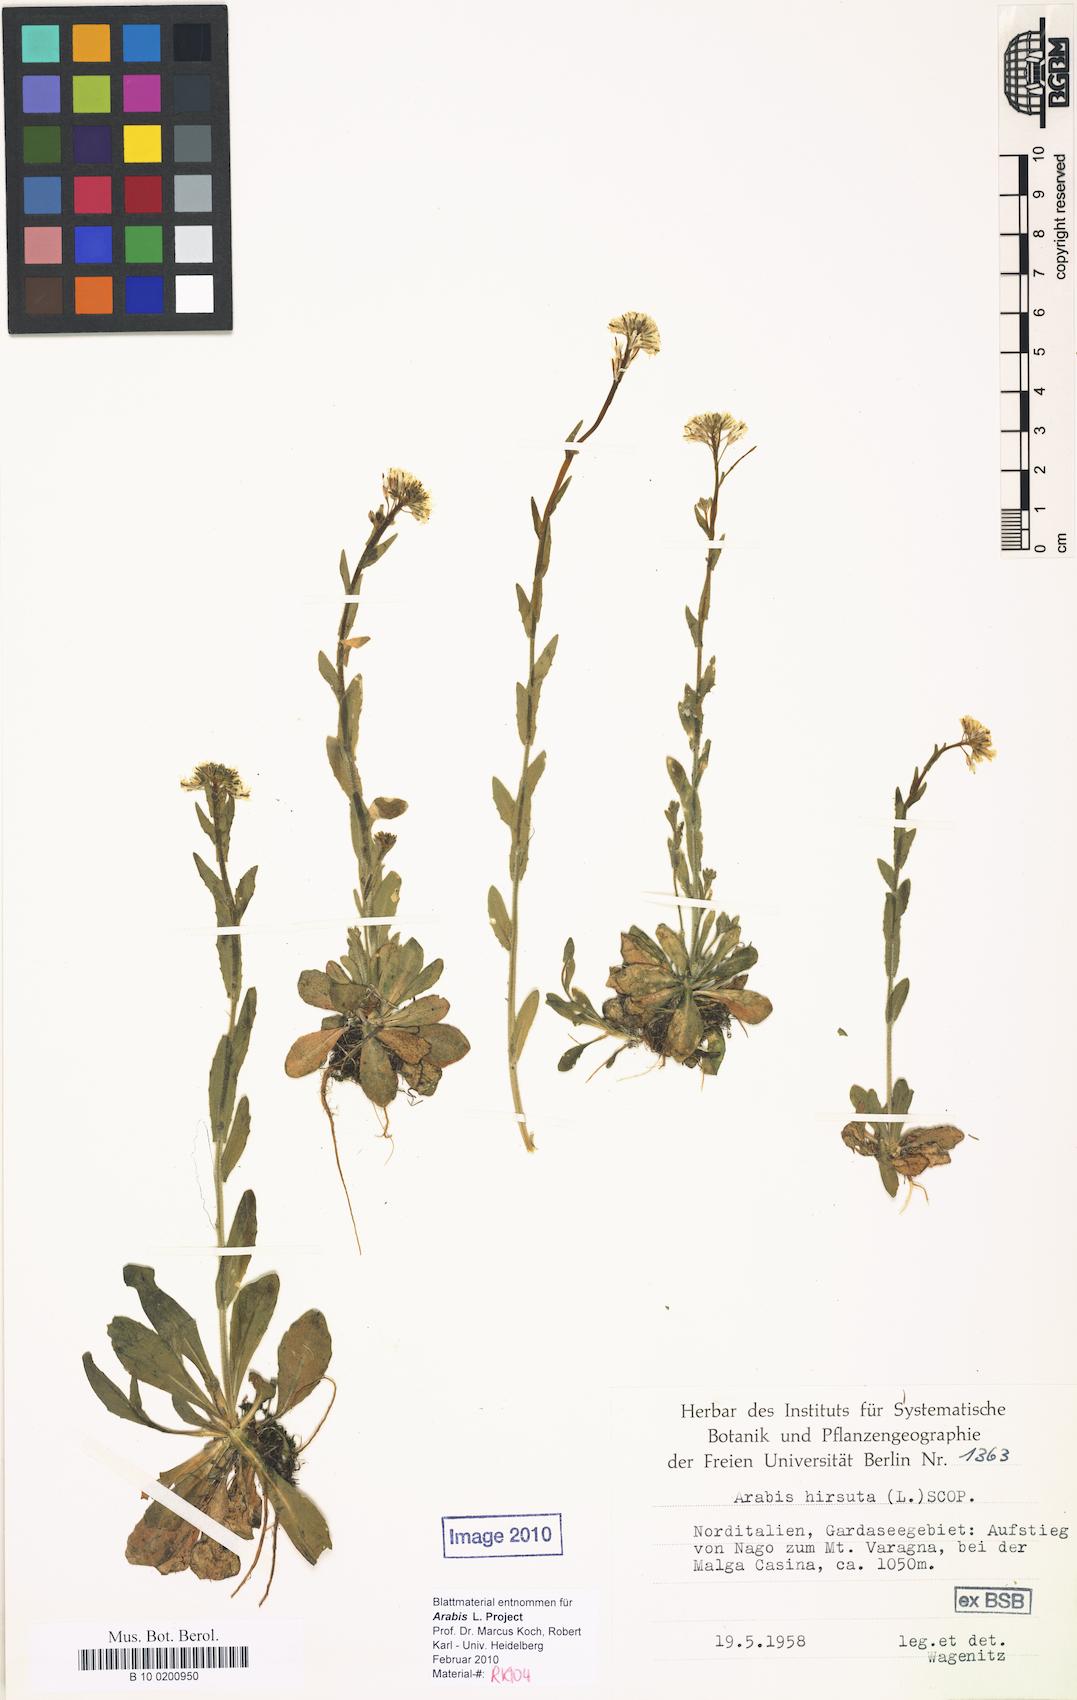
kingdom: Plantae
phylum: Tracheophyta
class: Magnoliopsida
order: Brassicales
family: Brassicaceae
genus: Arabis
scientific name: Arabis hirsuta
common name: Hairy rock-cress
